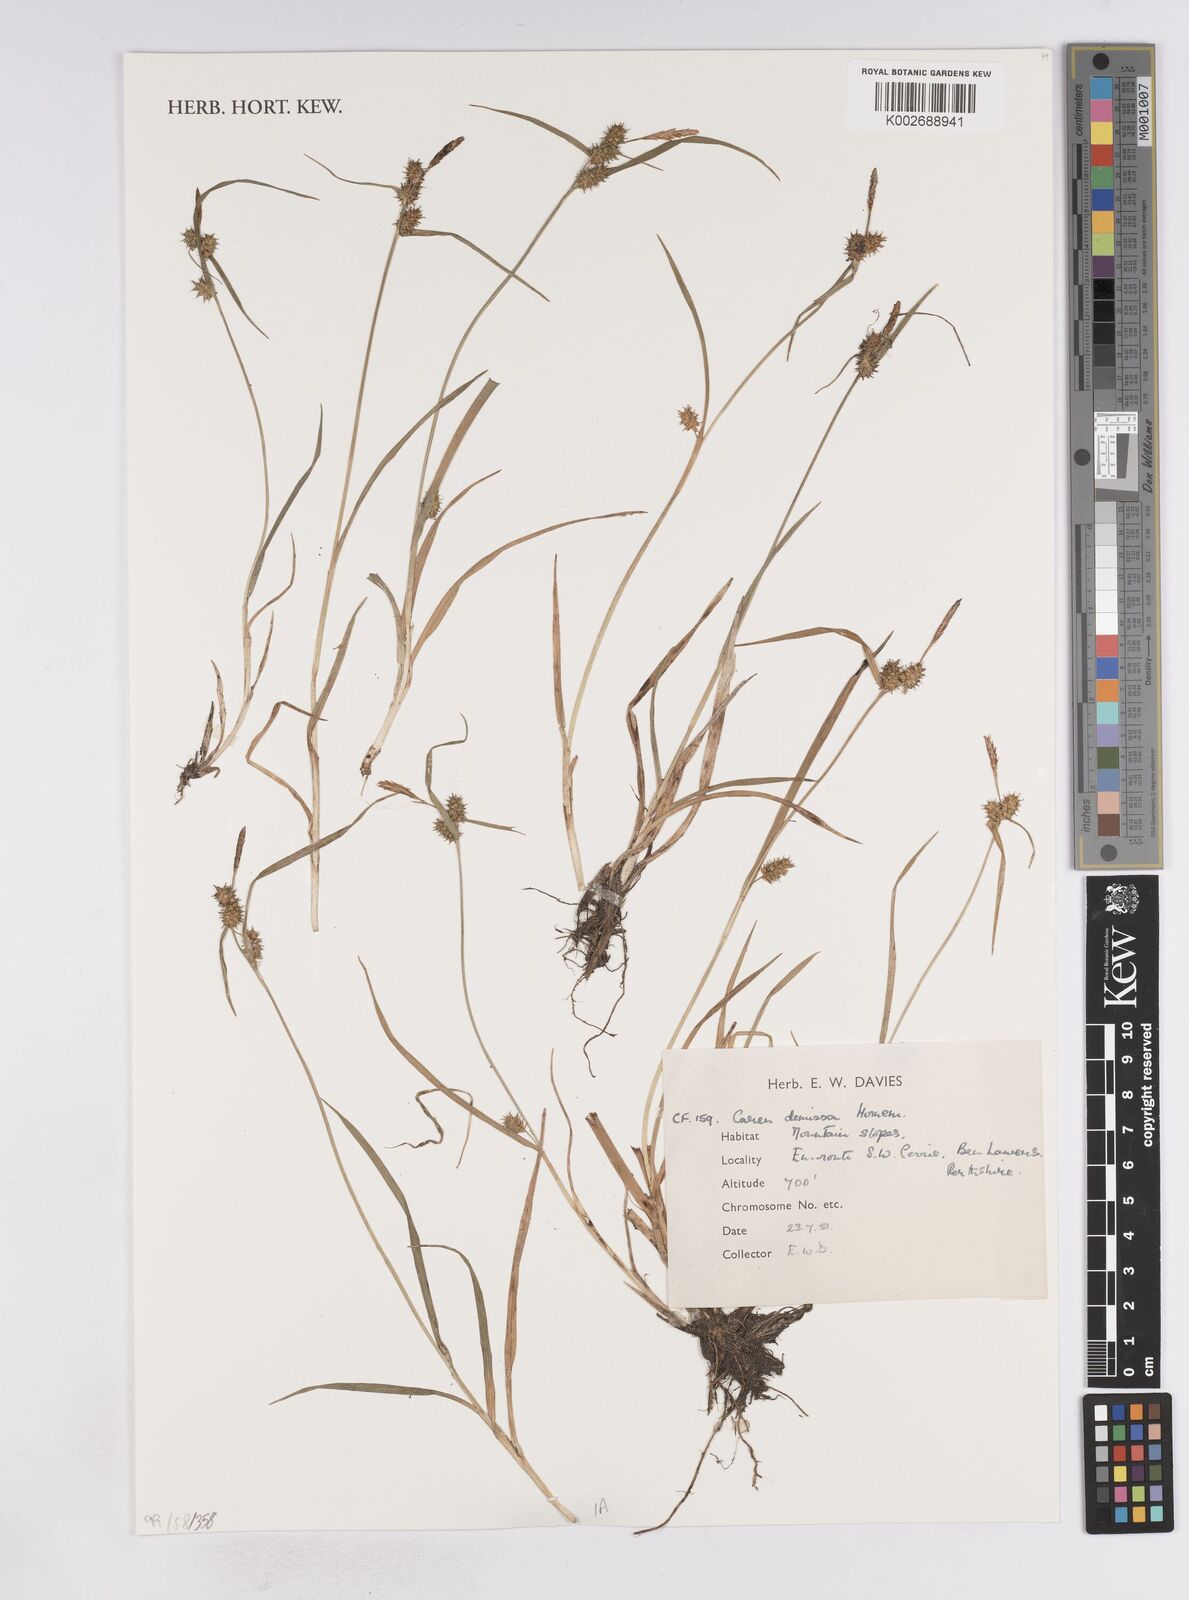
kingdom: Plantae
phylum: Tracheophyta
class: Liliopsida
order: Poales
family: Cyperaceae
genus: Carex
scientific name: Carex demissa
